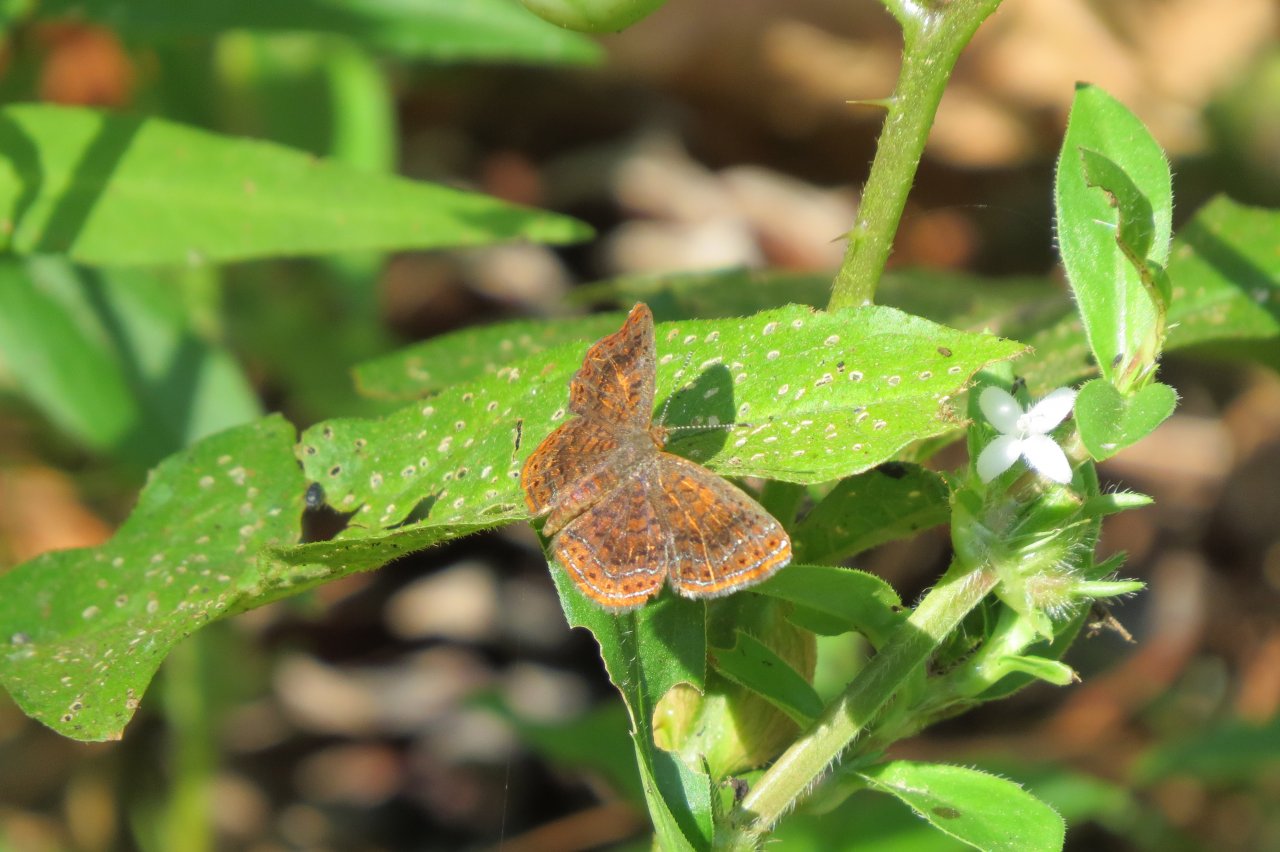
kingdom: Animalia
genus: Calephelis
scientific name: Calephelis borealis
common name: Northern Metalmark
